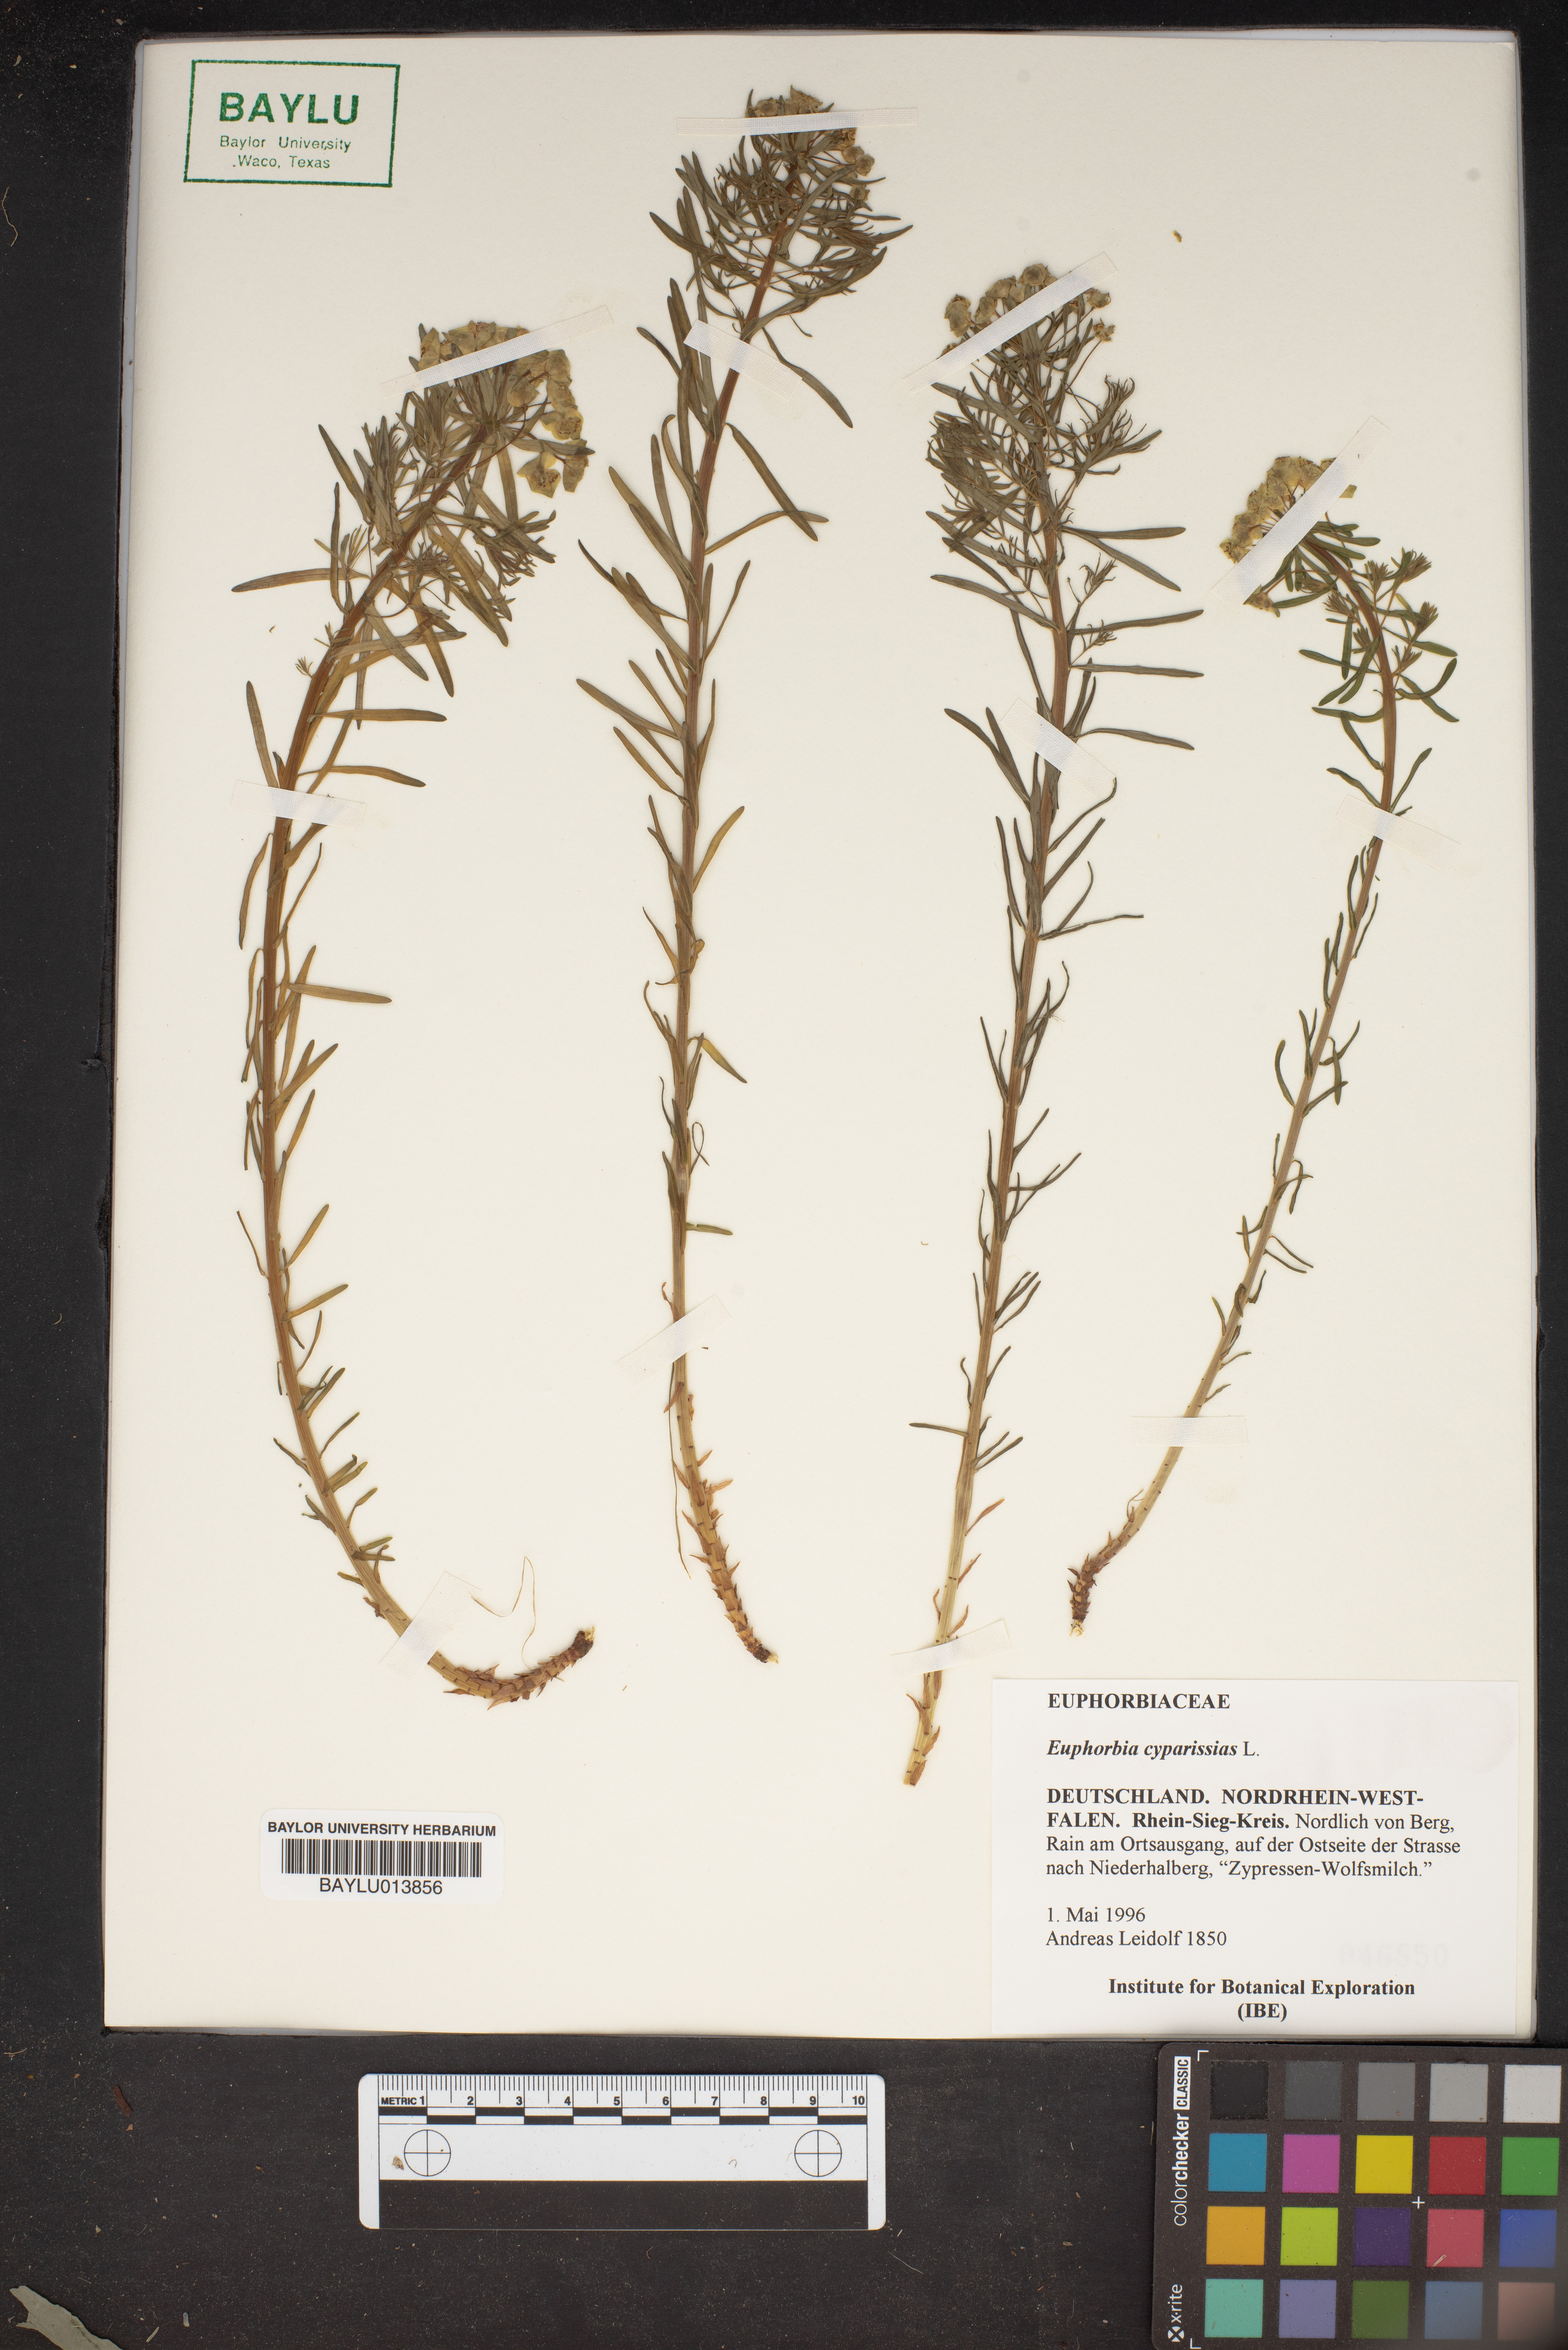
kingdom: Plantae
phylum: Tracheophyta
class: Magnoliopsida
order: Malpighiales
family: Euphorbiaceae
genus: Euphorbia
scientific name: Euphorbia cyparissias
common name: Cypress spurge
